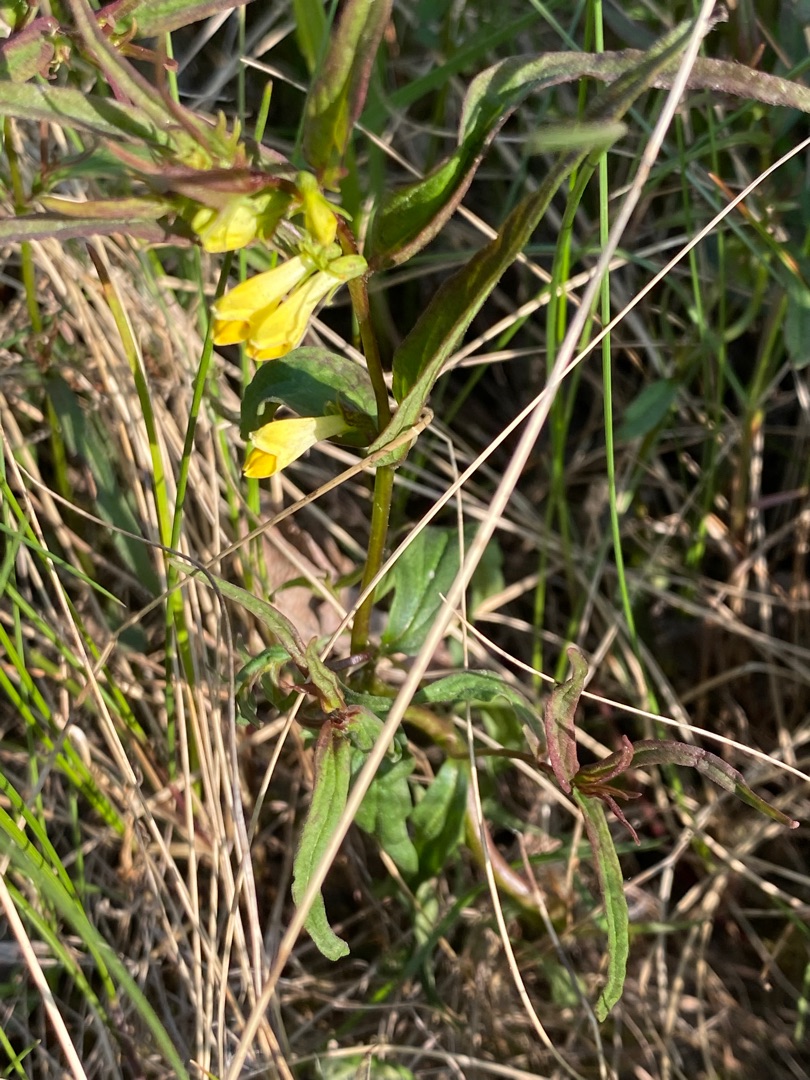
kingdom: Plantae
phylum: Tracheophyta
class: Magnoliopsida
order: Lamiales
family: Orobanchaceae
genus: Melampyrum
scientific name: Melampyrum pratense
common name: Almindelig kohvede
